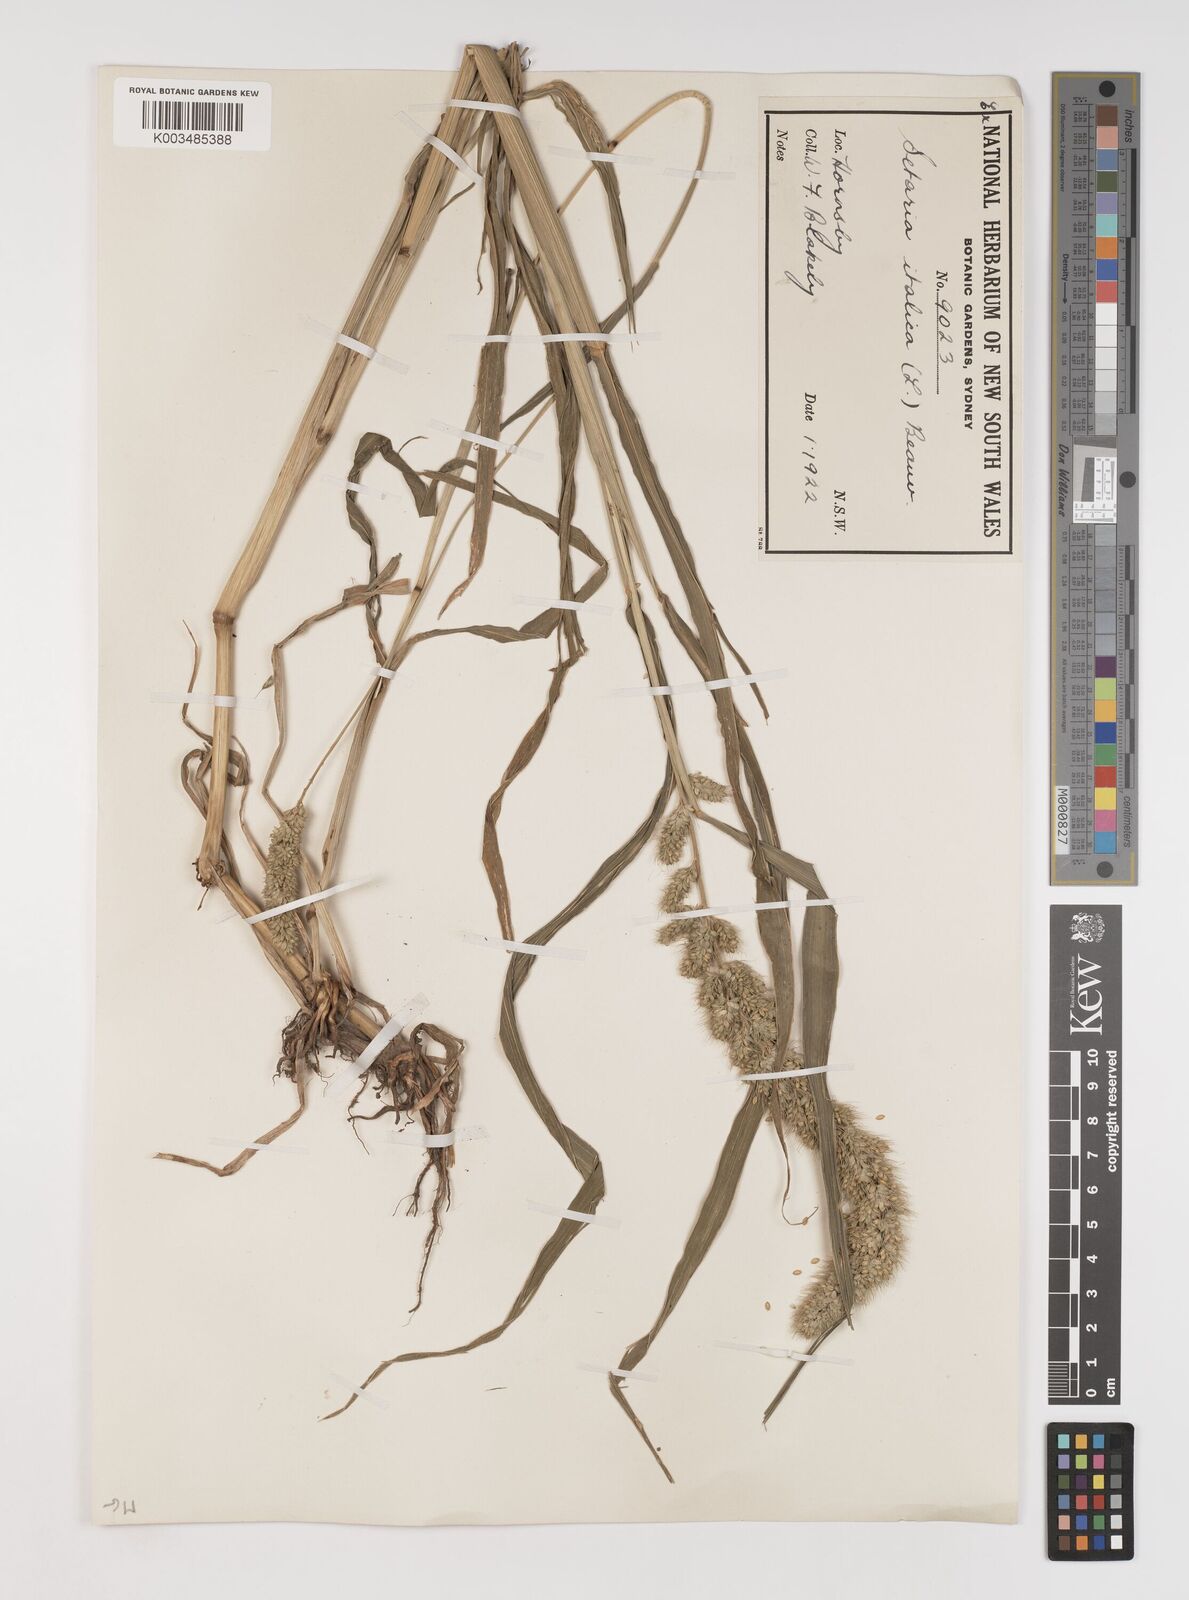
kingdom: Plantae
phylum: Tracheophyta
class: Liliopsida
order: Poales
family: Poaceae
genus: Setaria
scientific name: Setaria italica
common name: Foxtail bristle-grass
